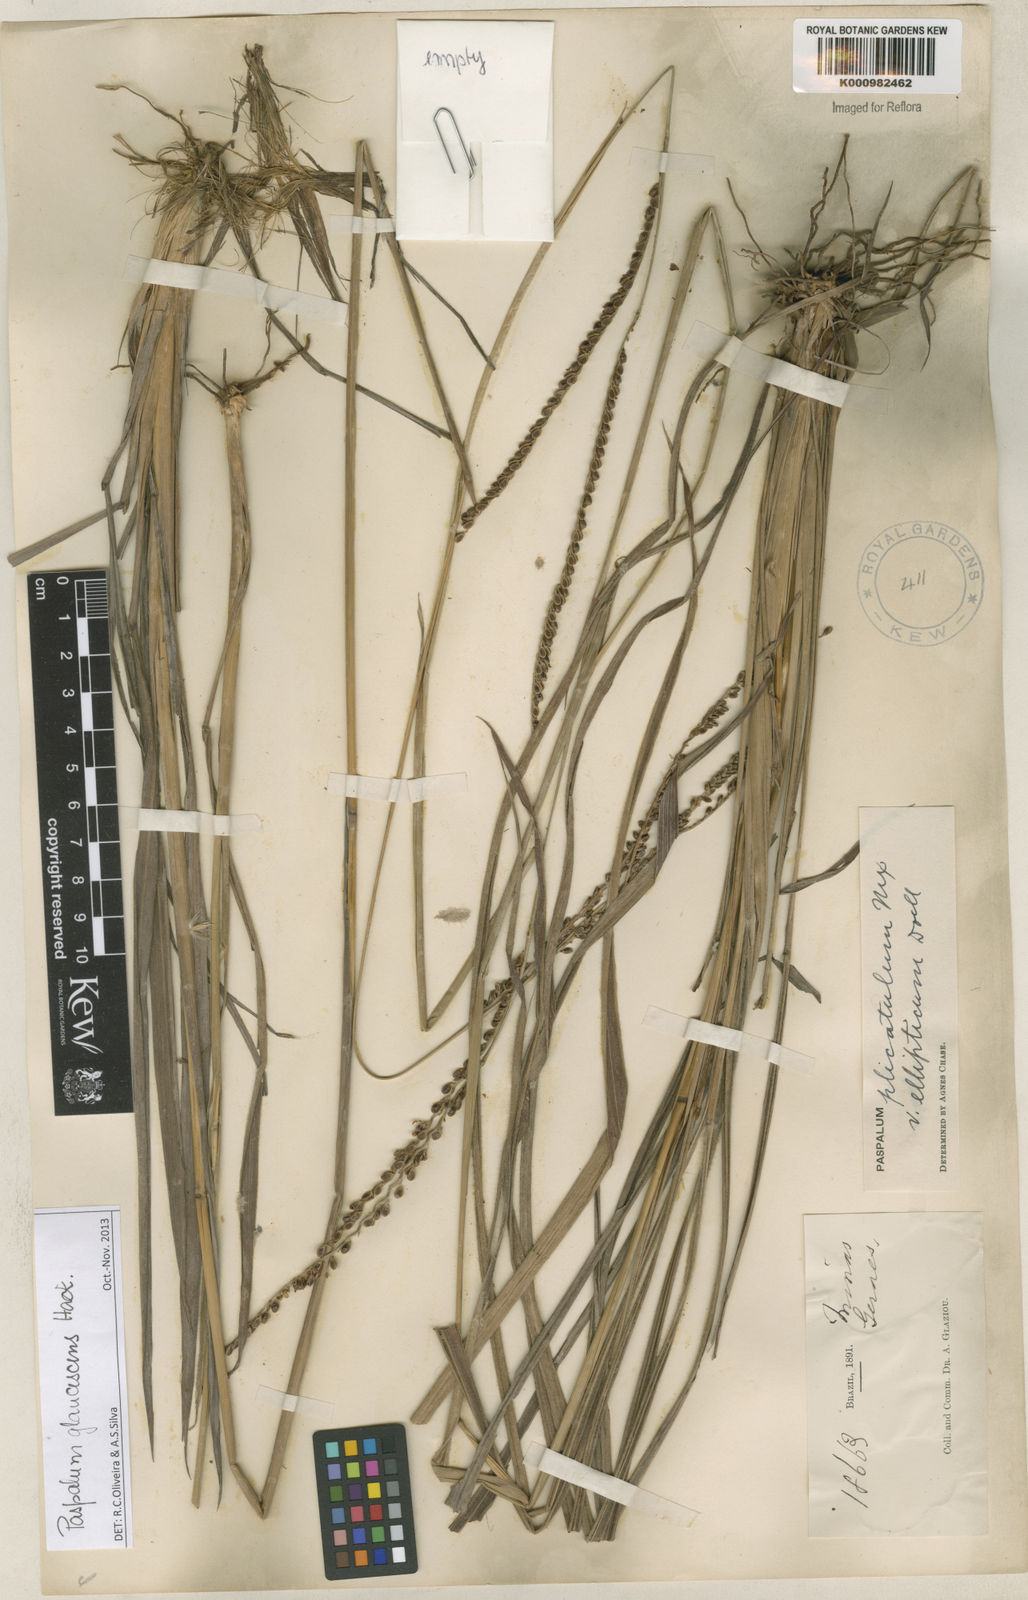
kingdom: Plantae
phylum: Tracheophyta
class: Liliopsida
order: Poales
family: Poaceae
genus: Paspalum
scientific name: Paspalum glaucescens
